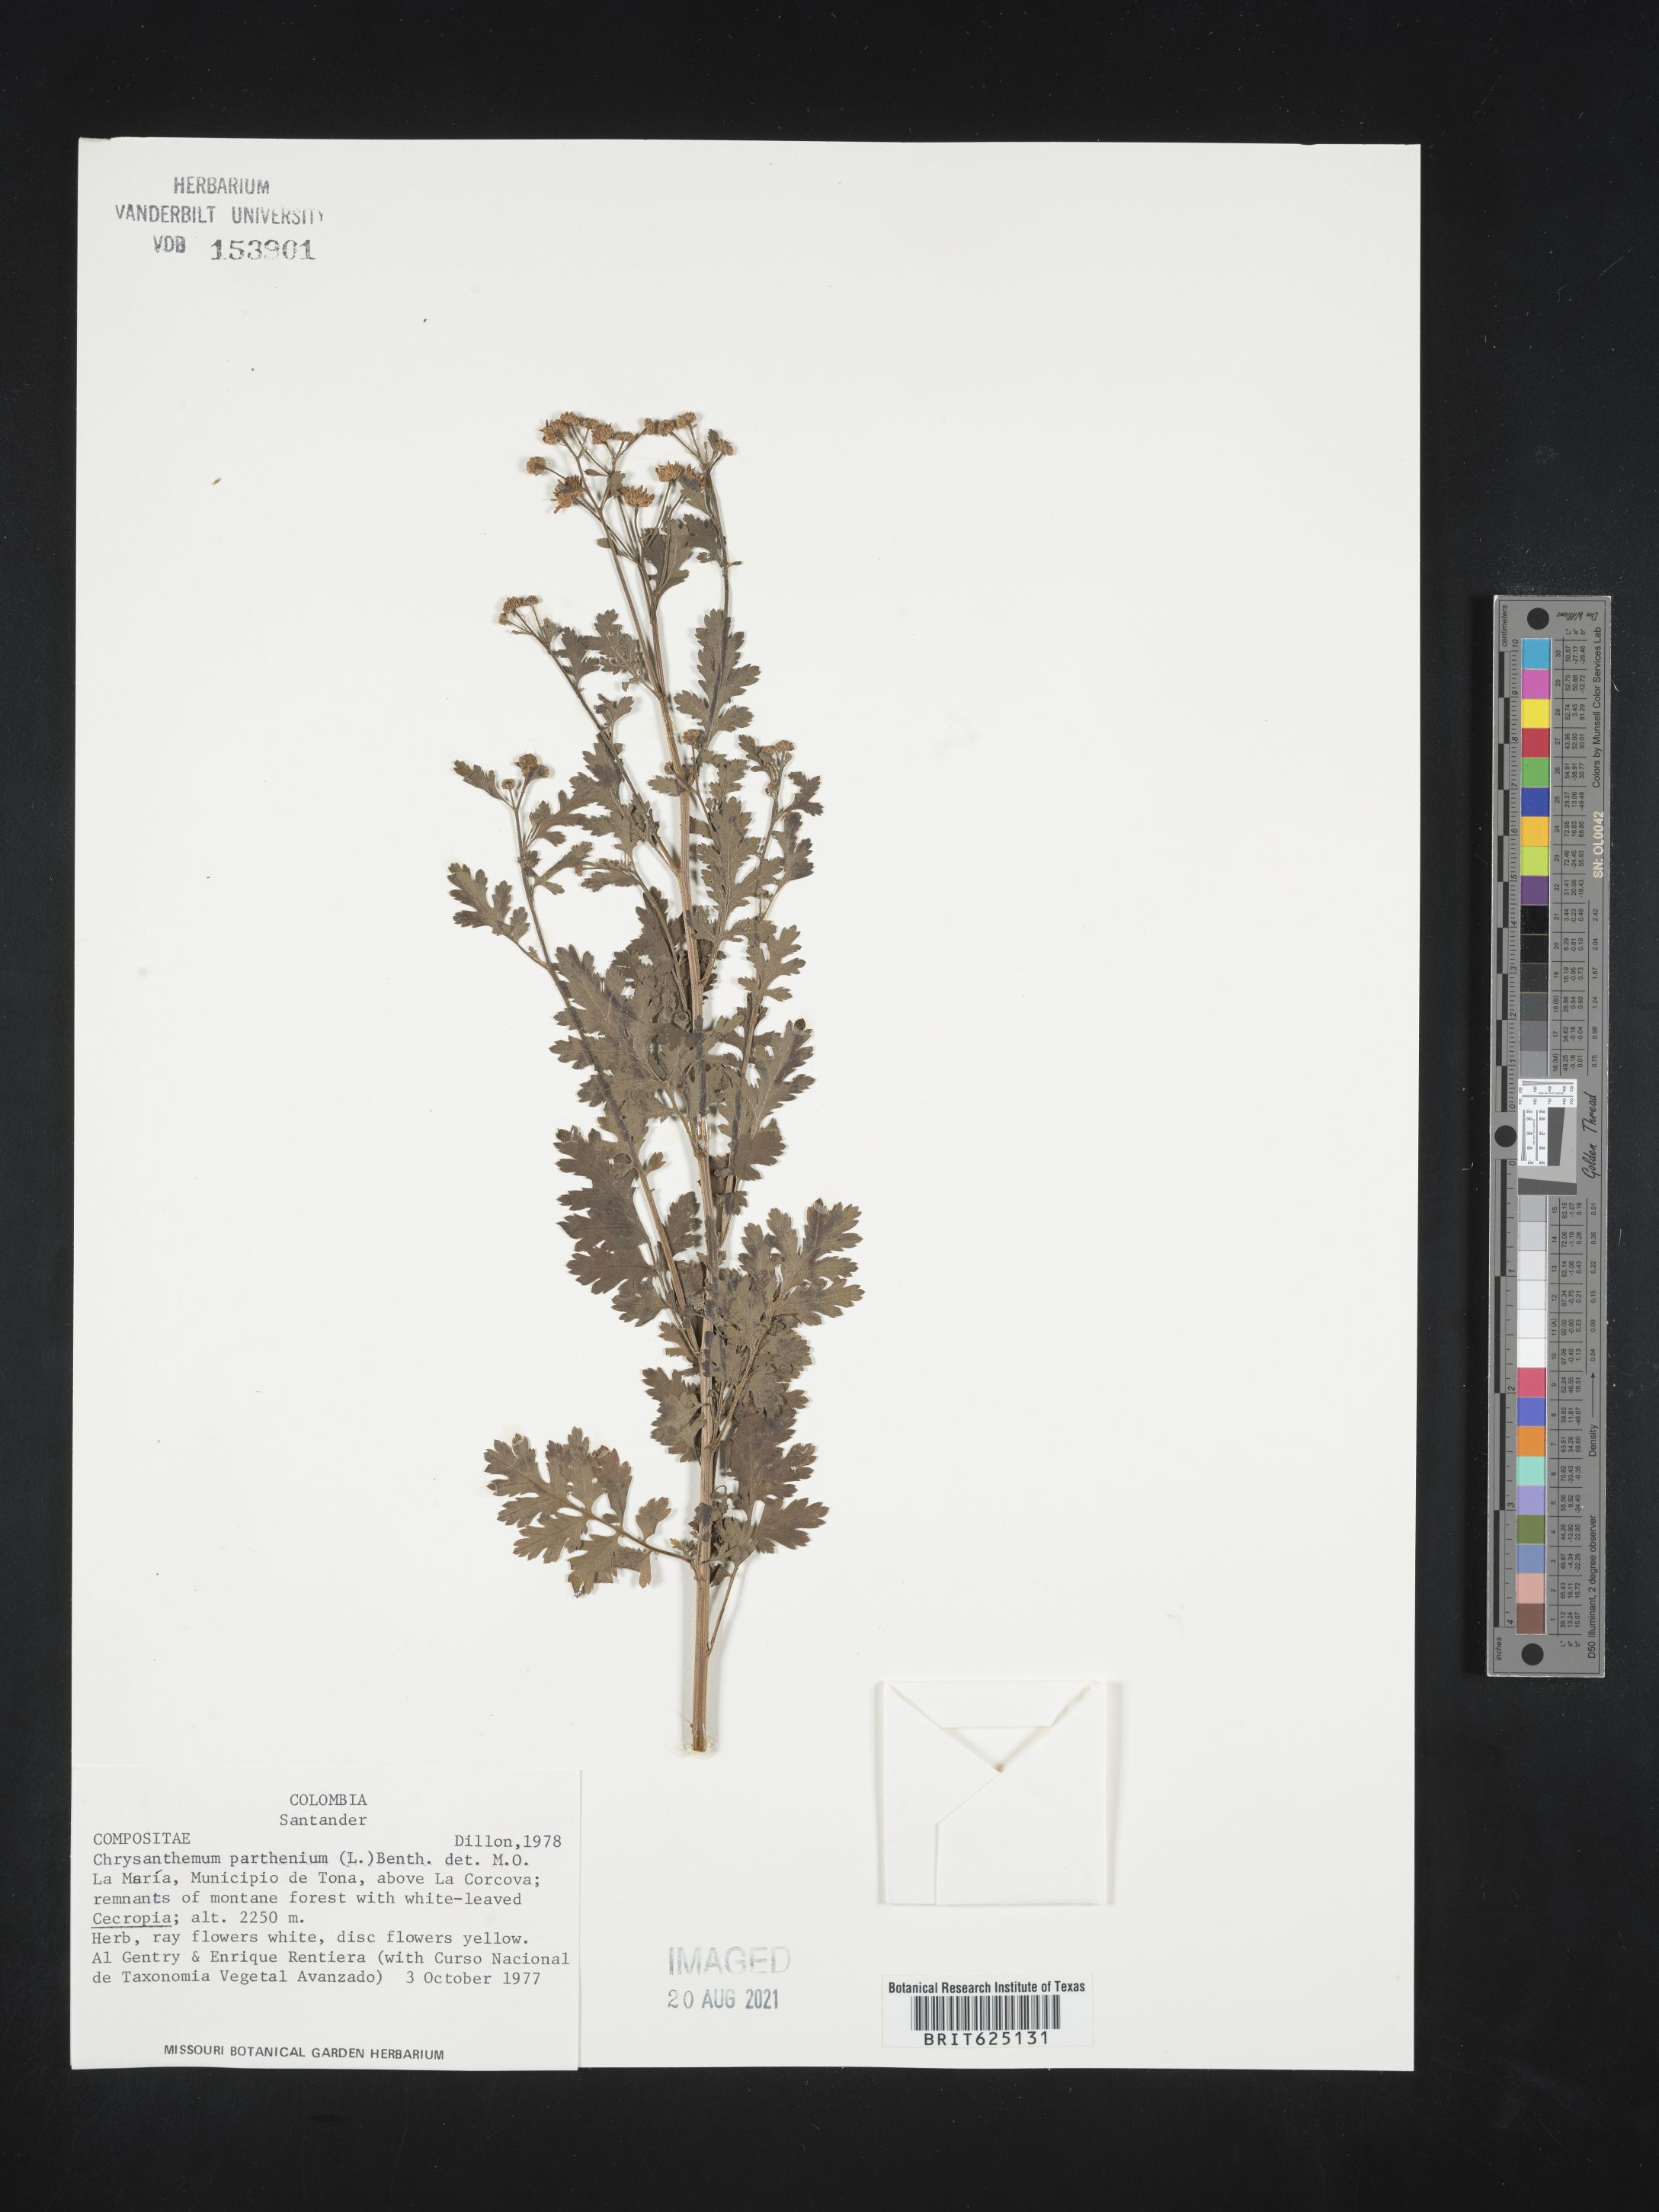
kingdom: Plantae
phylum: Tracheophyta
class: Magnoliopsida
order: Asterales
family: Asteraceae
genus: Tanacetum
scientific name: Tanacetum parthenium
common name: Feverfew
